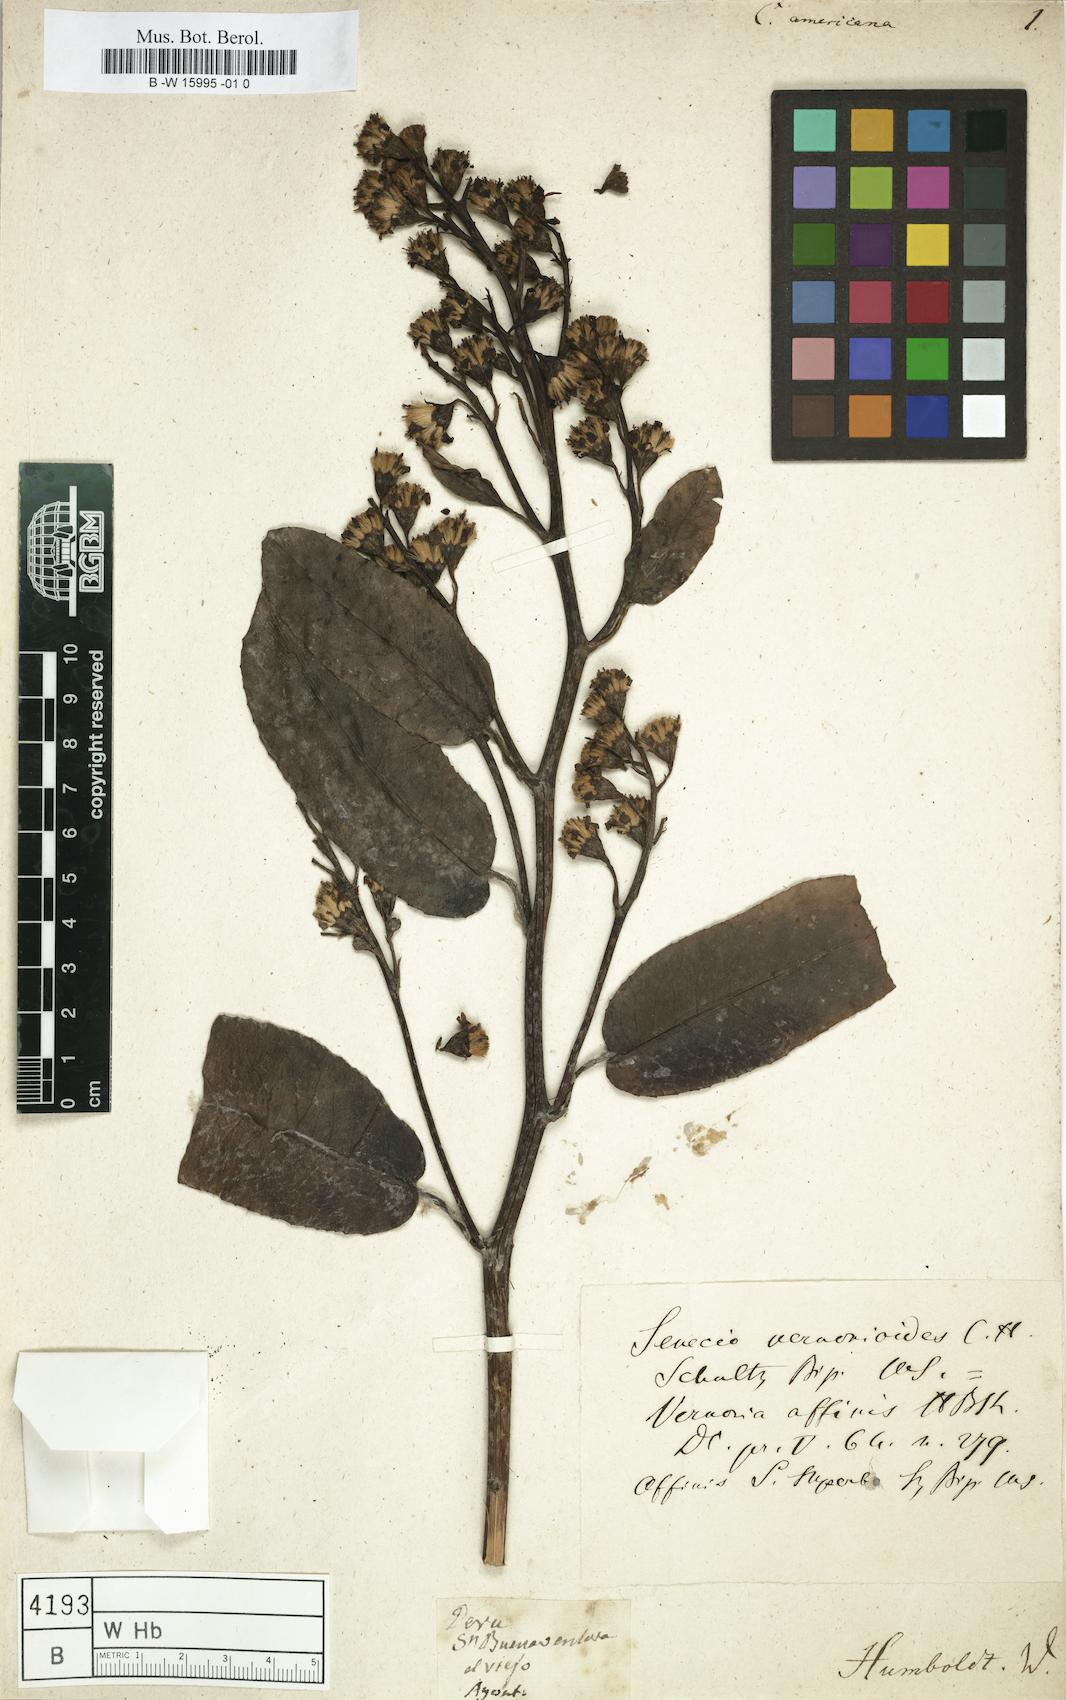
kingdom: Plantae
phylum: Tracheophyta
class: Magnoliopsida
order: Asterales
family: Asteraceae
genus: Dendrophorbium
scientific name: Dendrophorbium americanum
